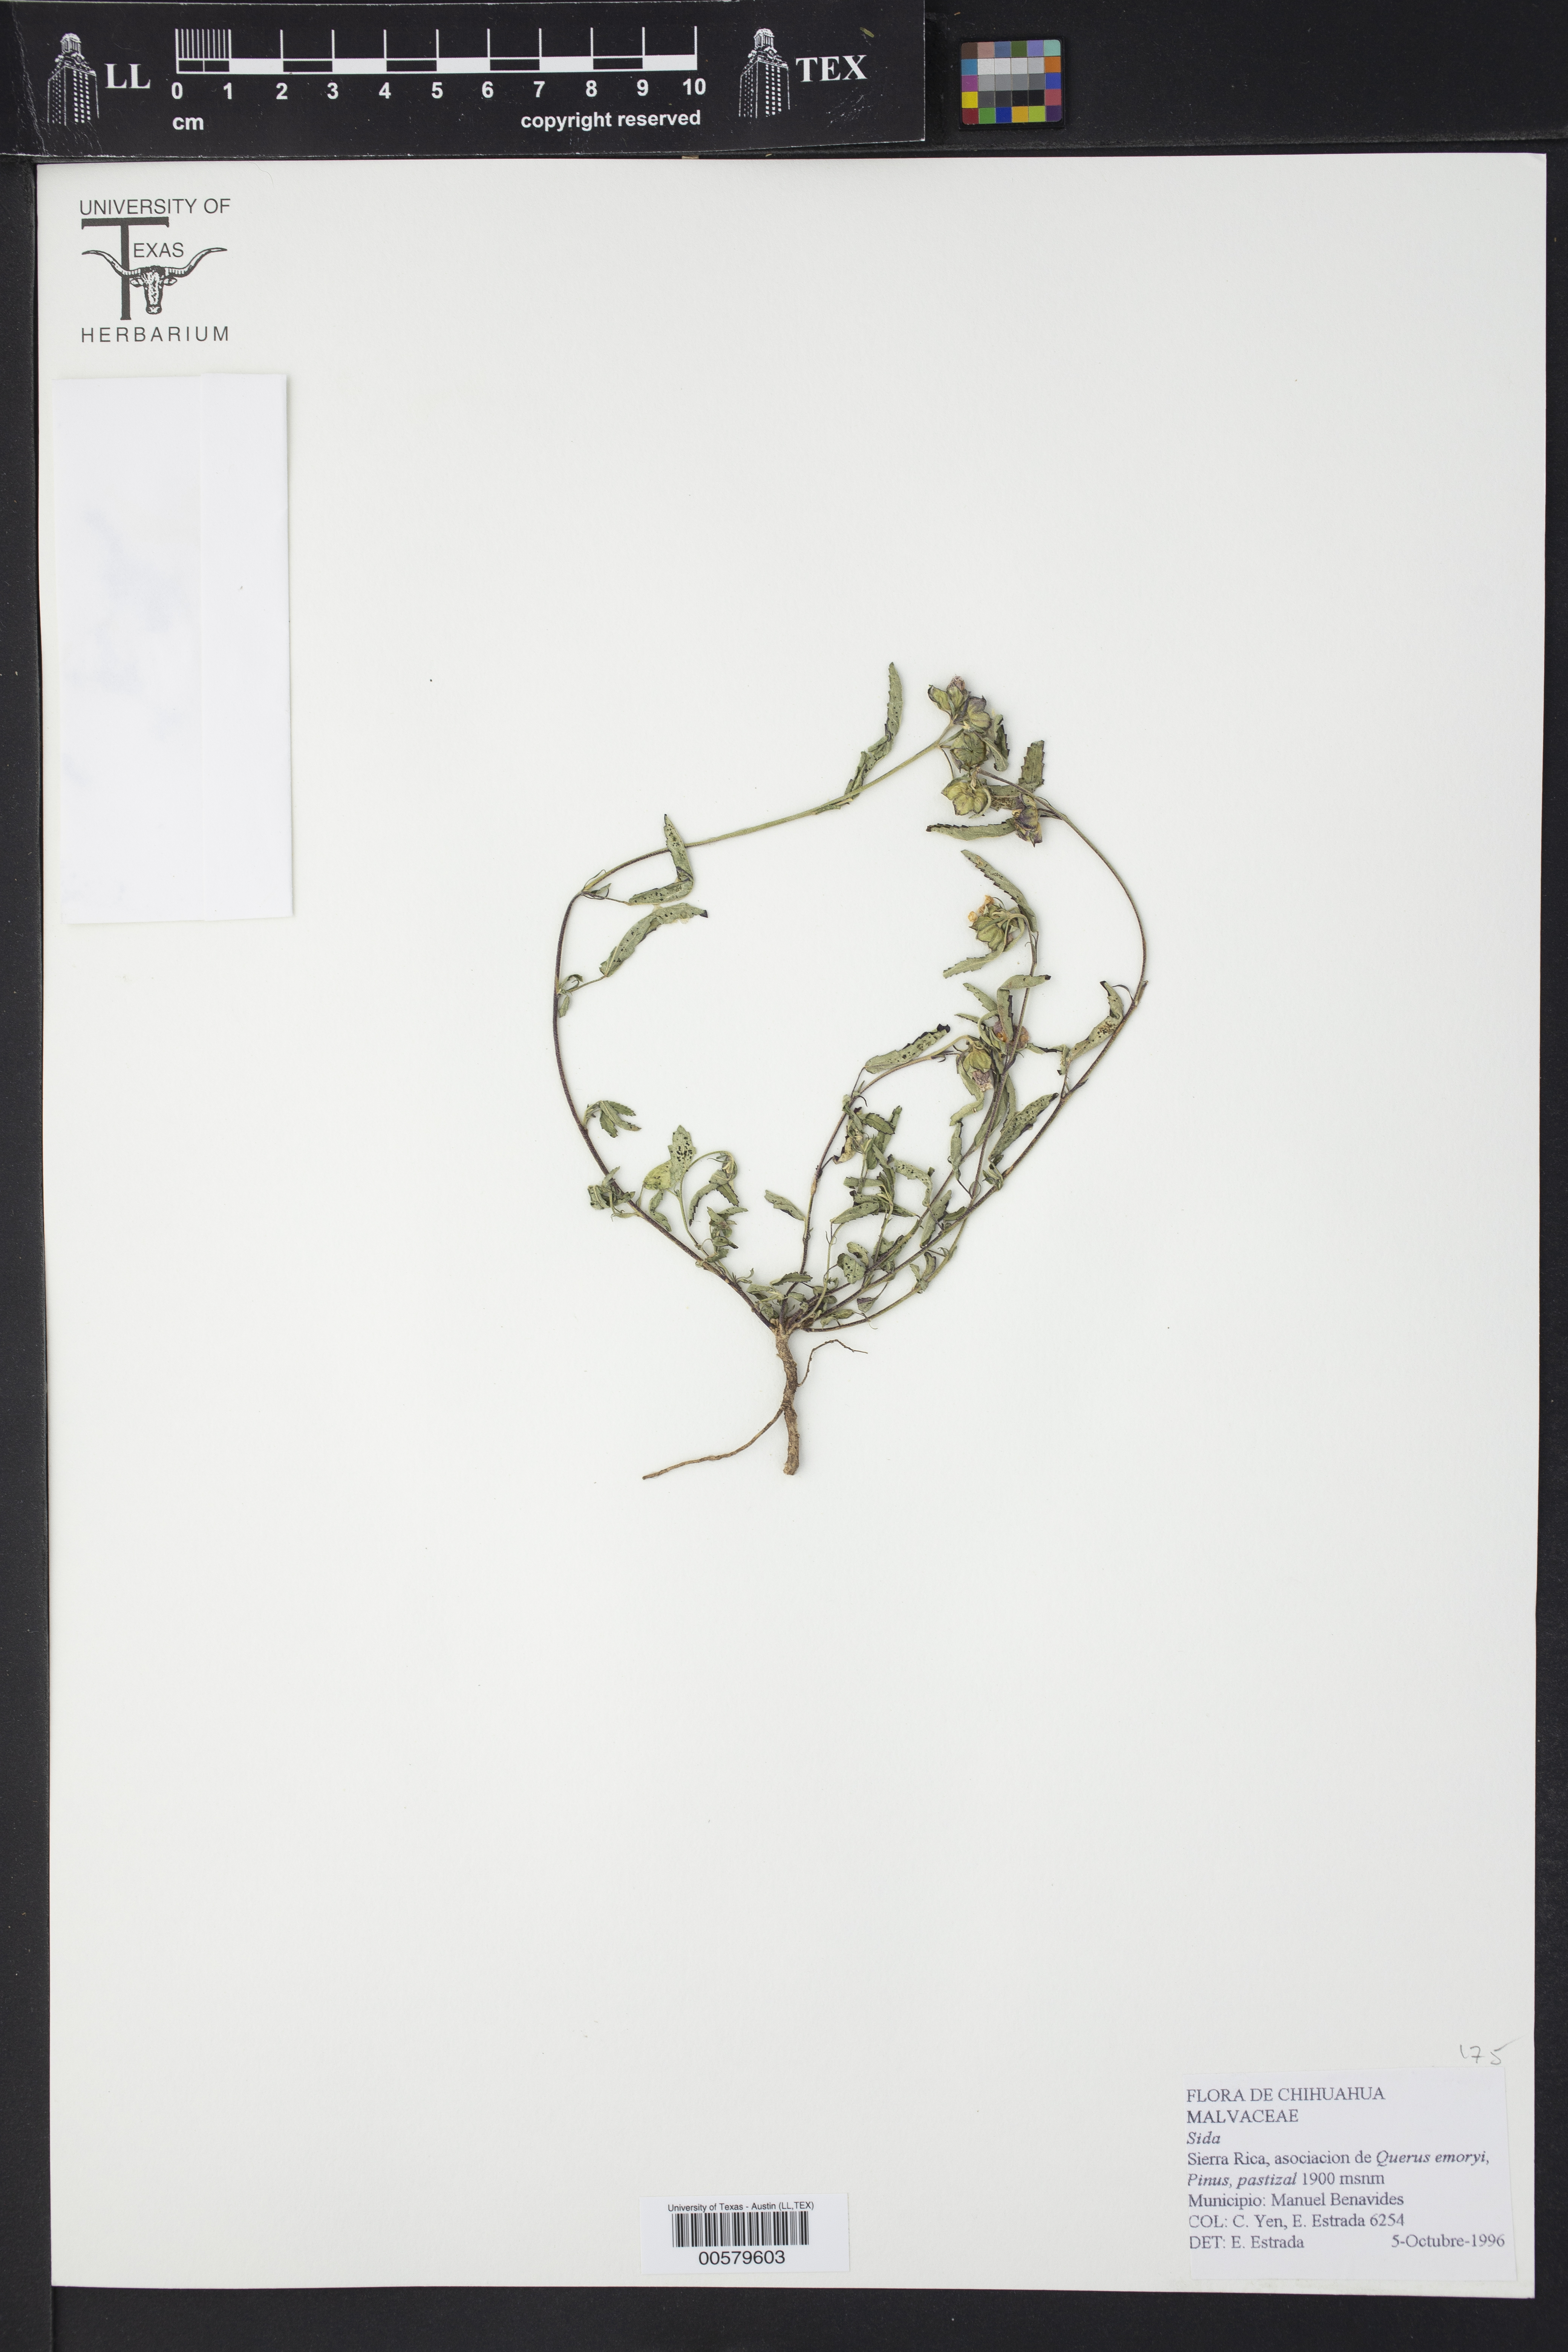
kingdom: Plantae
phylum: Tracheophyta
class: Magnoliopsida
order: Malvales
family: Malvaceae
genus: Sida
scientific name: Sida
